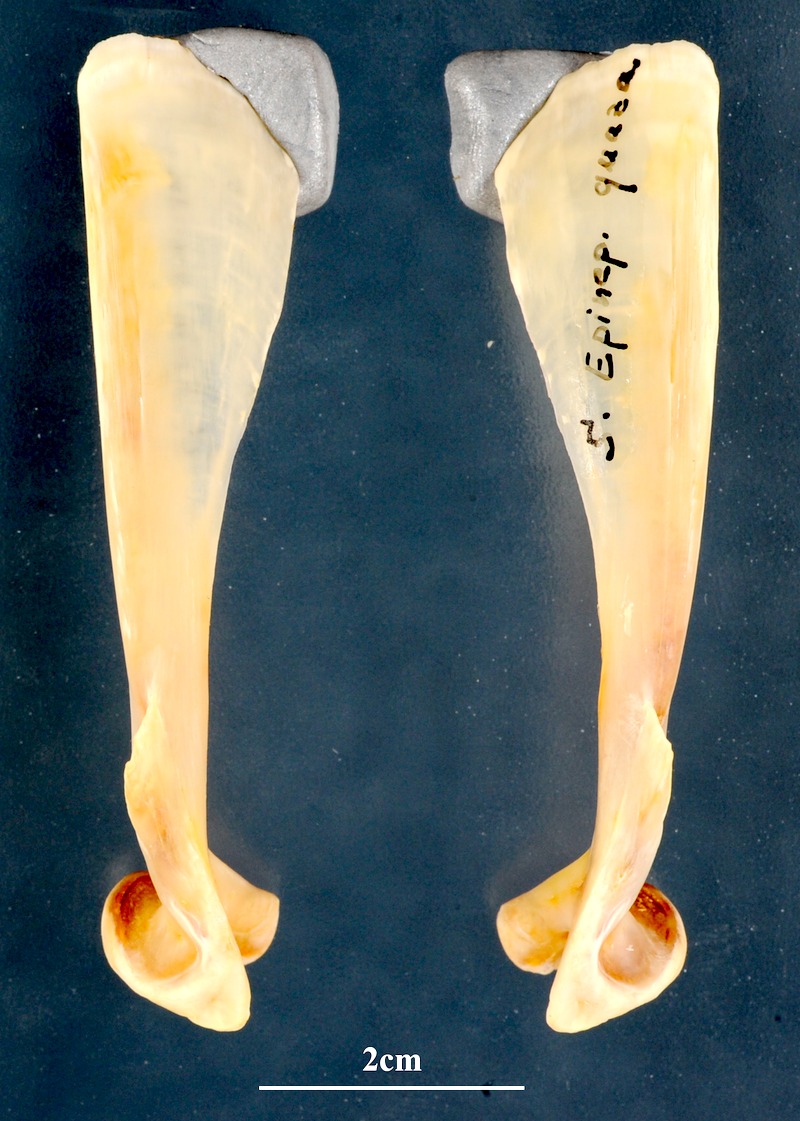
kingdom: Animalia
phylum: Chordata
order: Perciformes
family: Serranidae
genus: Epinephelus
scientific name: Epinephelus marginatus
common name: Dusky grouper
